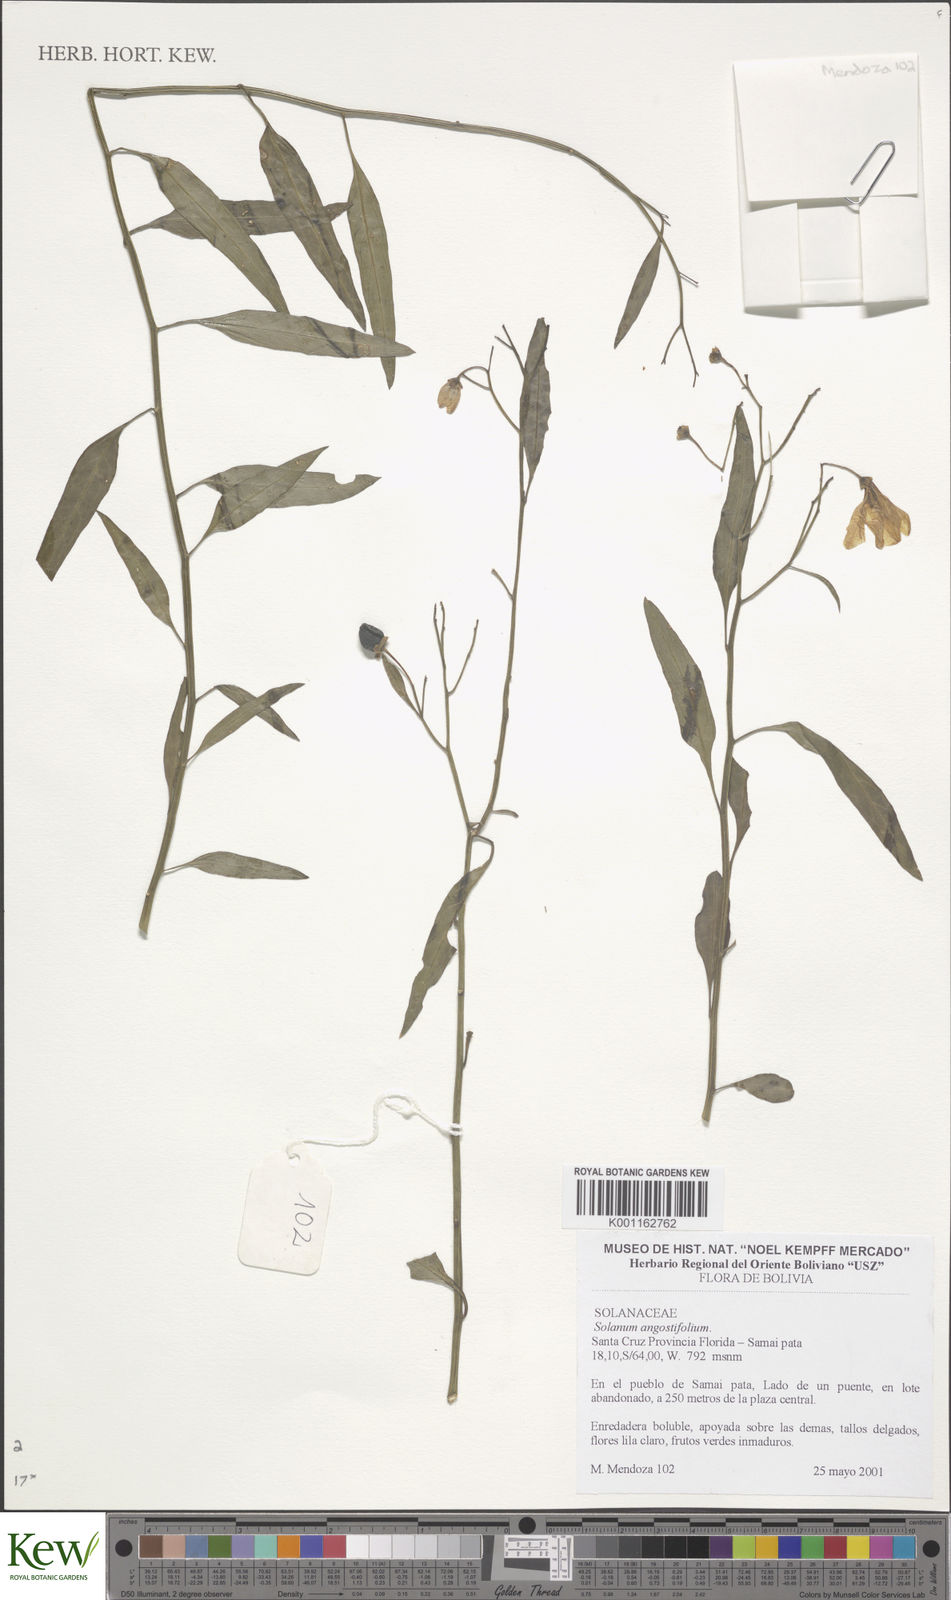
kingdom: Plantae
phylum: Tracheophyta
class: Magnoliopsida
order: Solanales
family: Solanaceae
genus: Solanum
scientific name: Solanum
